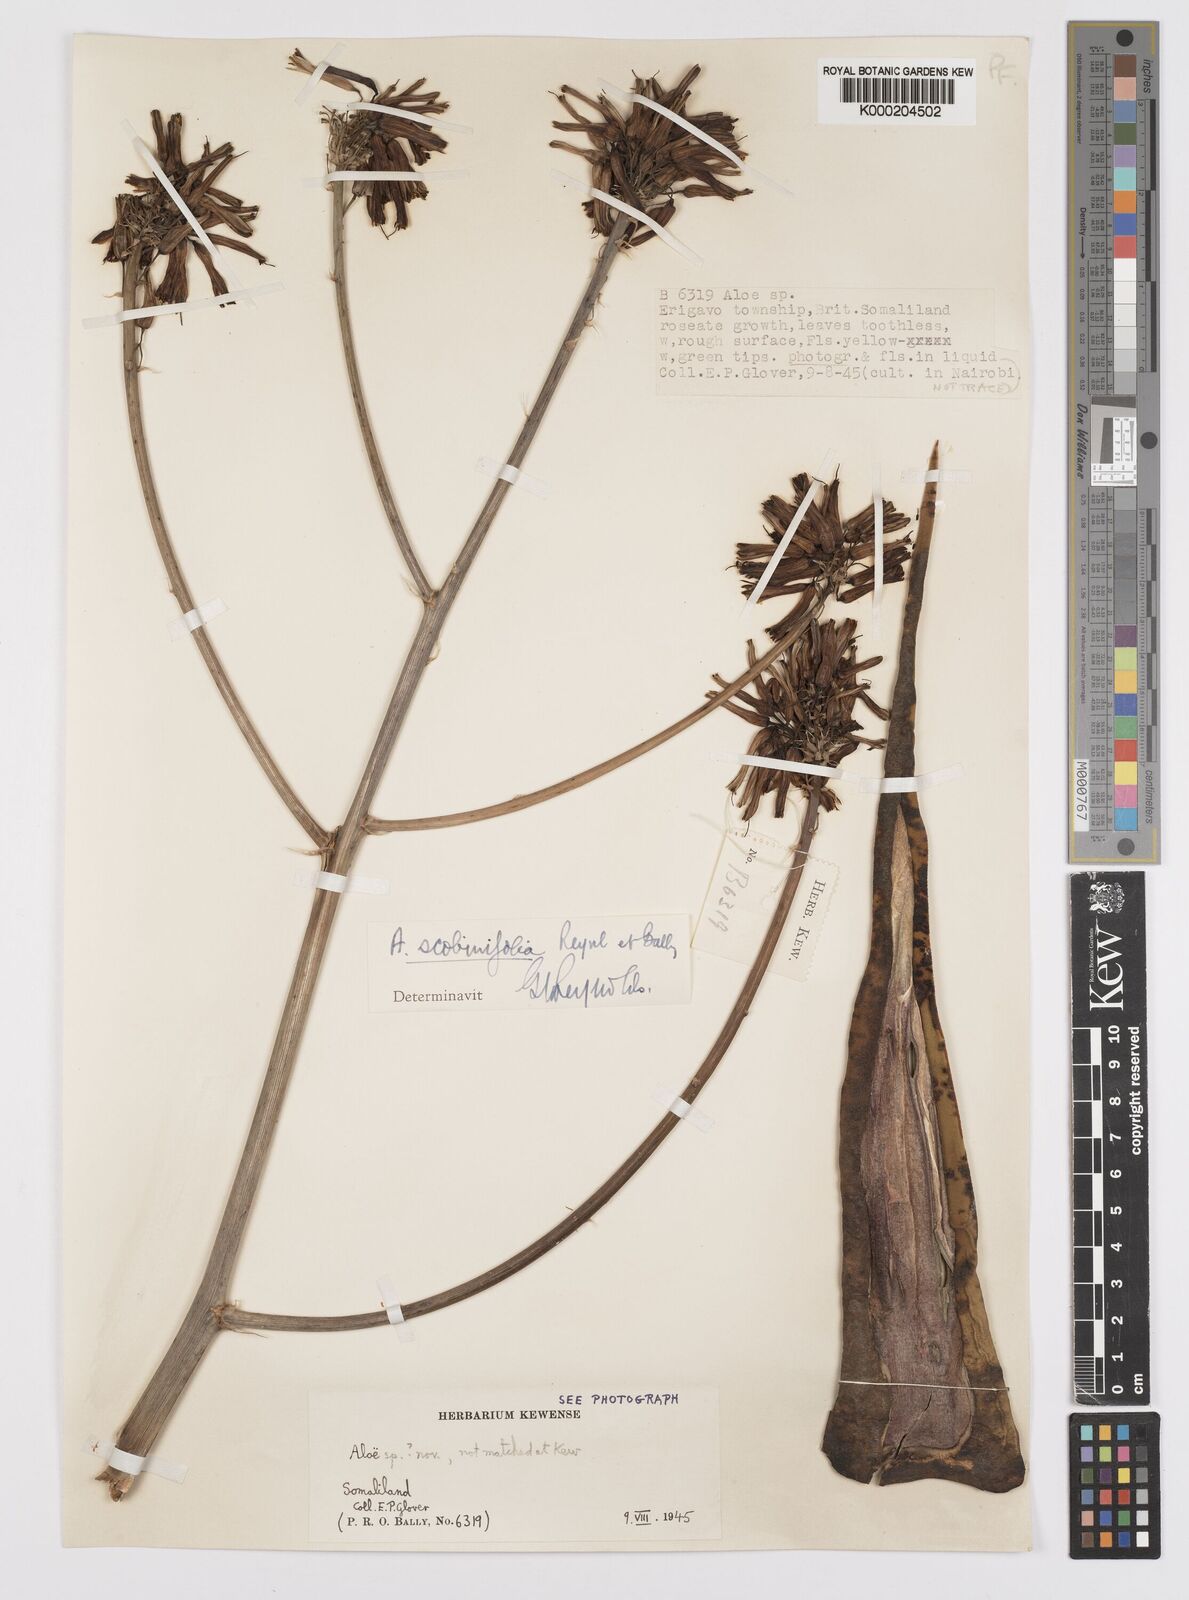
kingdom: Plantae
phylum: Tracheophyta
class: Liliopsida
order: Asparagales
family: Asphodelaceae
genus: Aloe
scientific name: Aloe scobinifolia
